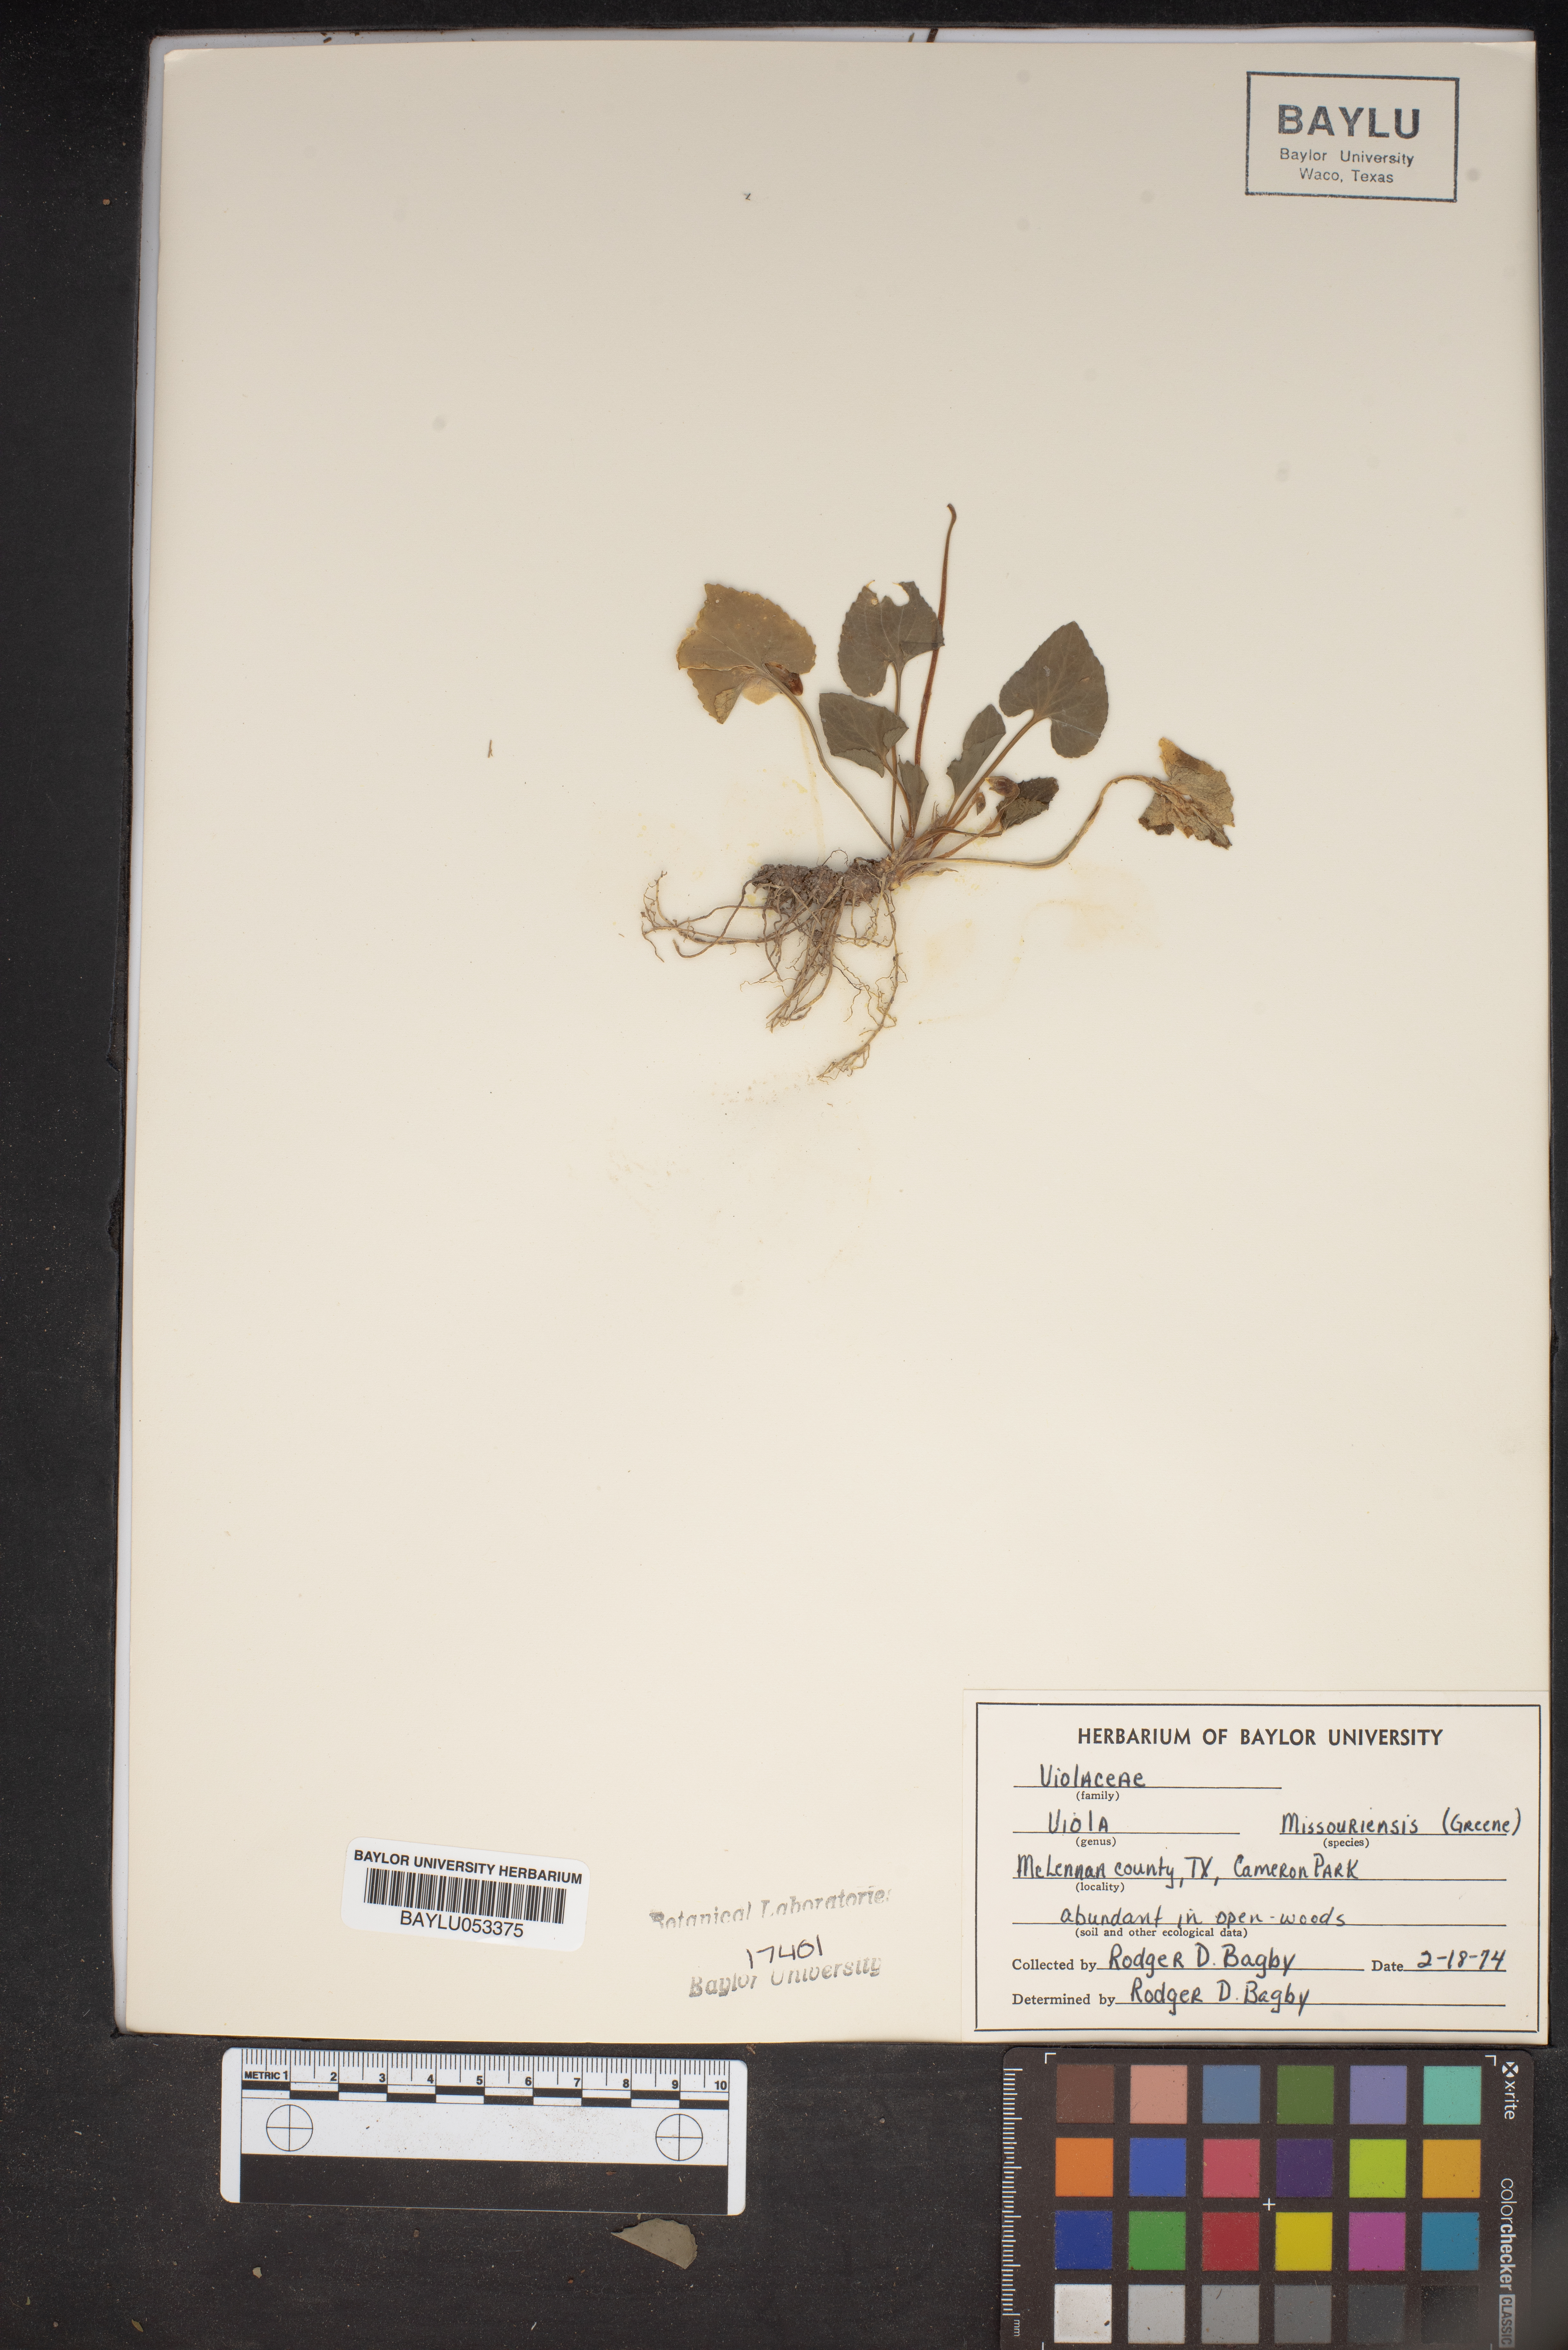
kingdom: Plantae
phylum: Tracheophyta
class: Magnoliopsida
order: Malpighiales
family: Violaceae
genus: Viola
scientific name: Viola missouriensis
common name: Missouri violet
